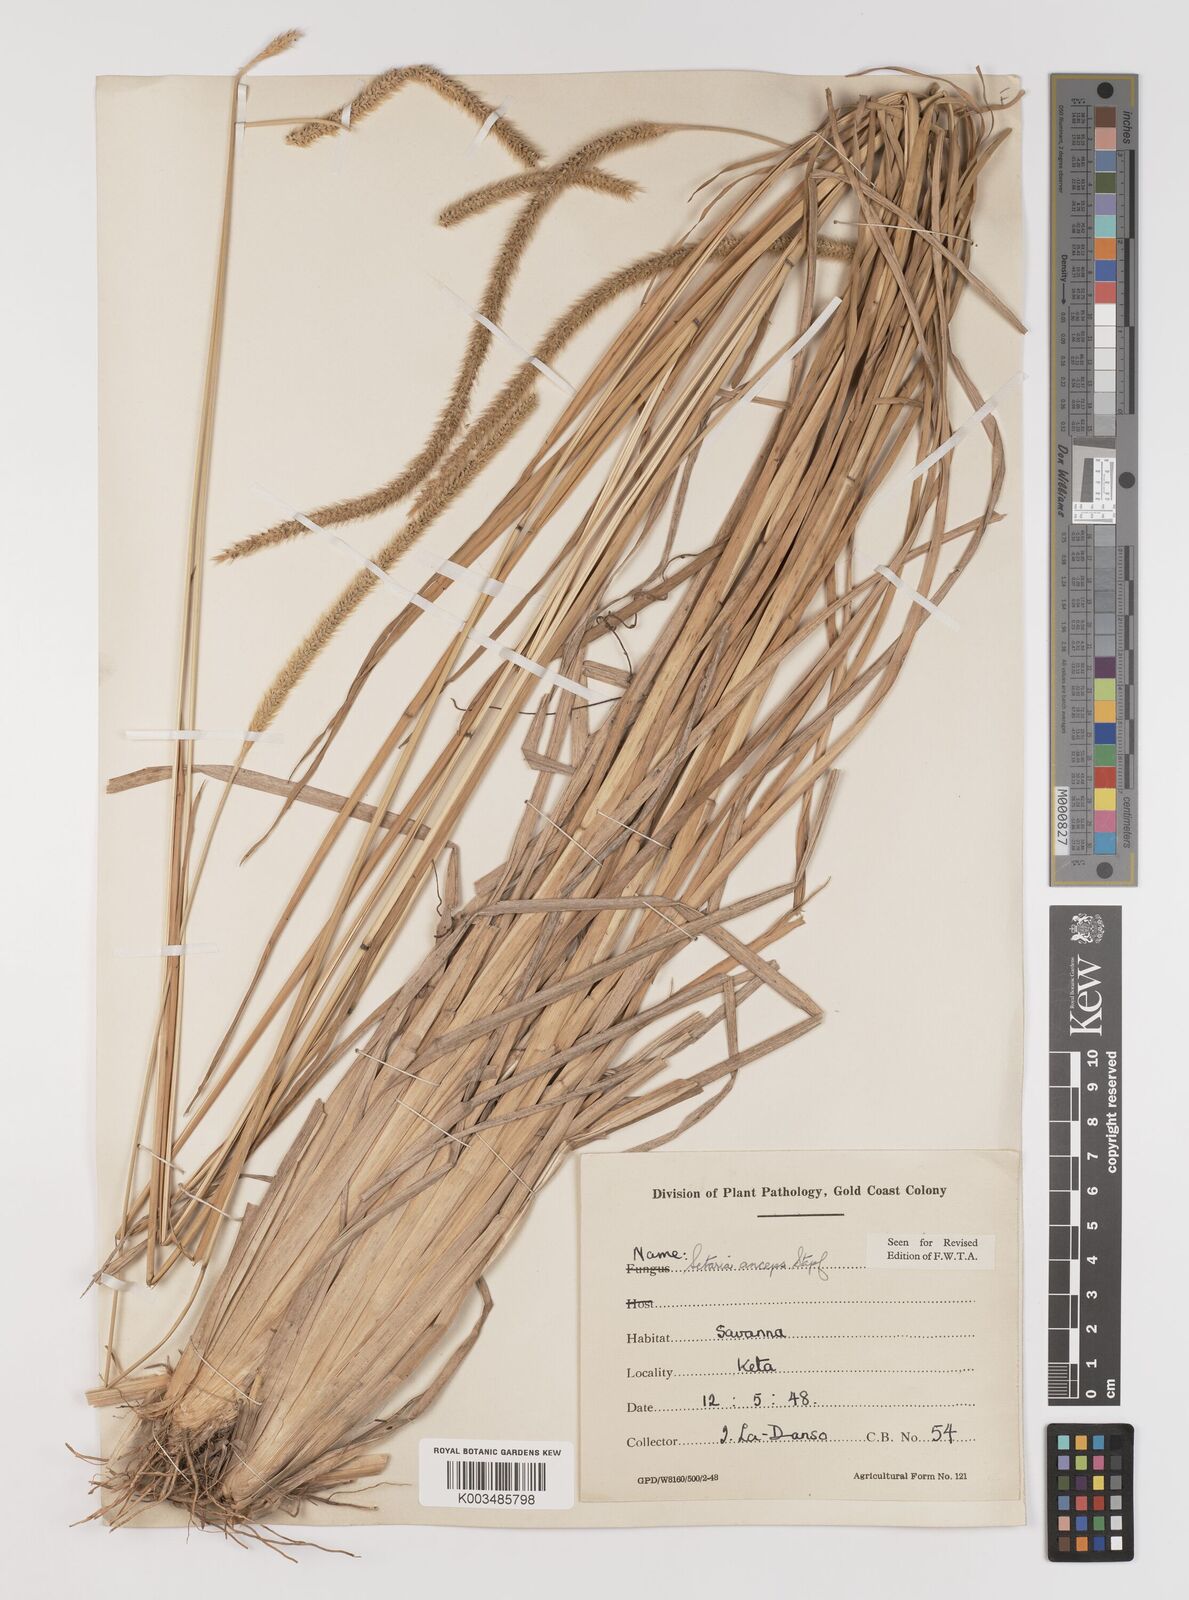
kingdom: Plantae
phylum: Tracheophyta
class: Liliopsida
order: Poales
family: Poaceae
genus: Setaria
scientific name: Setaria sphacelata
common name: African bristlegrass
